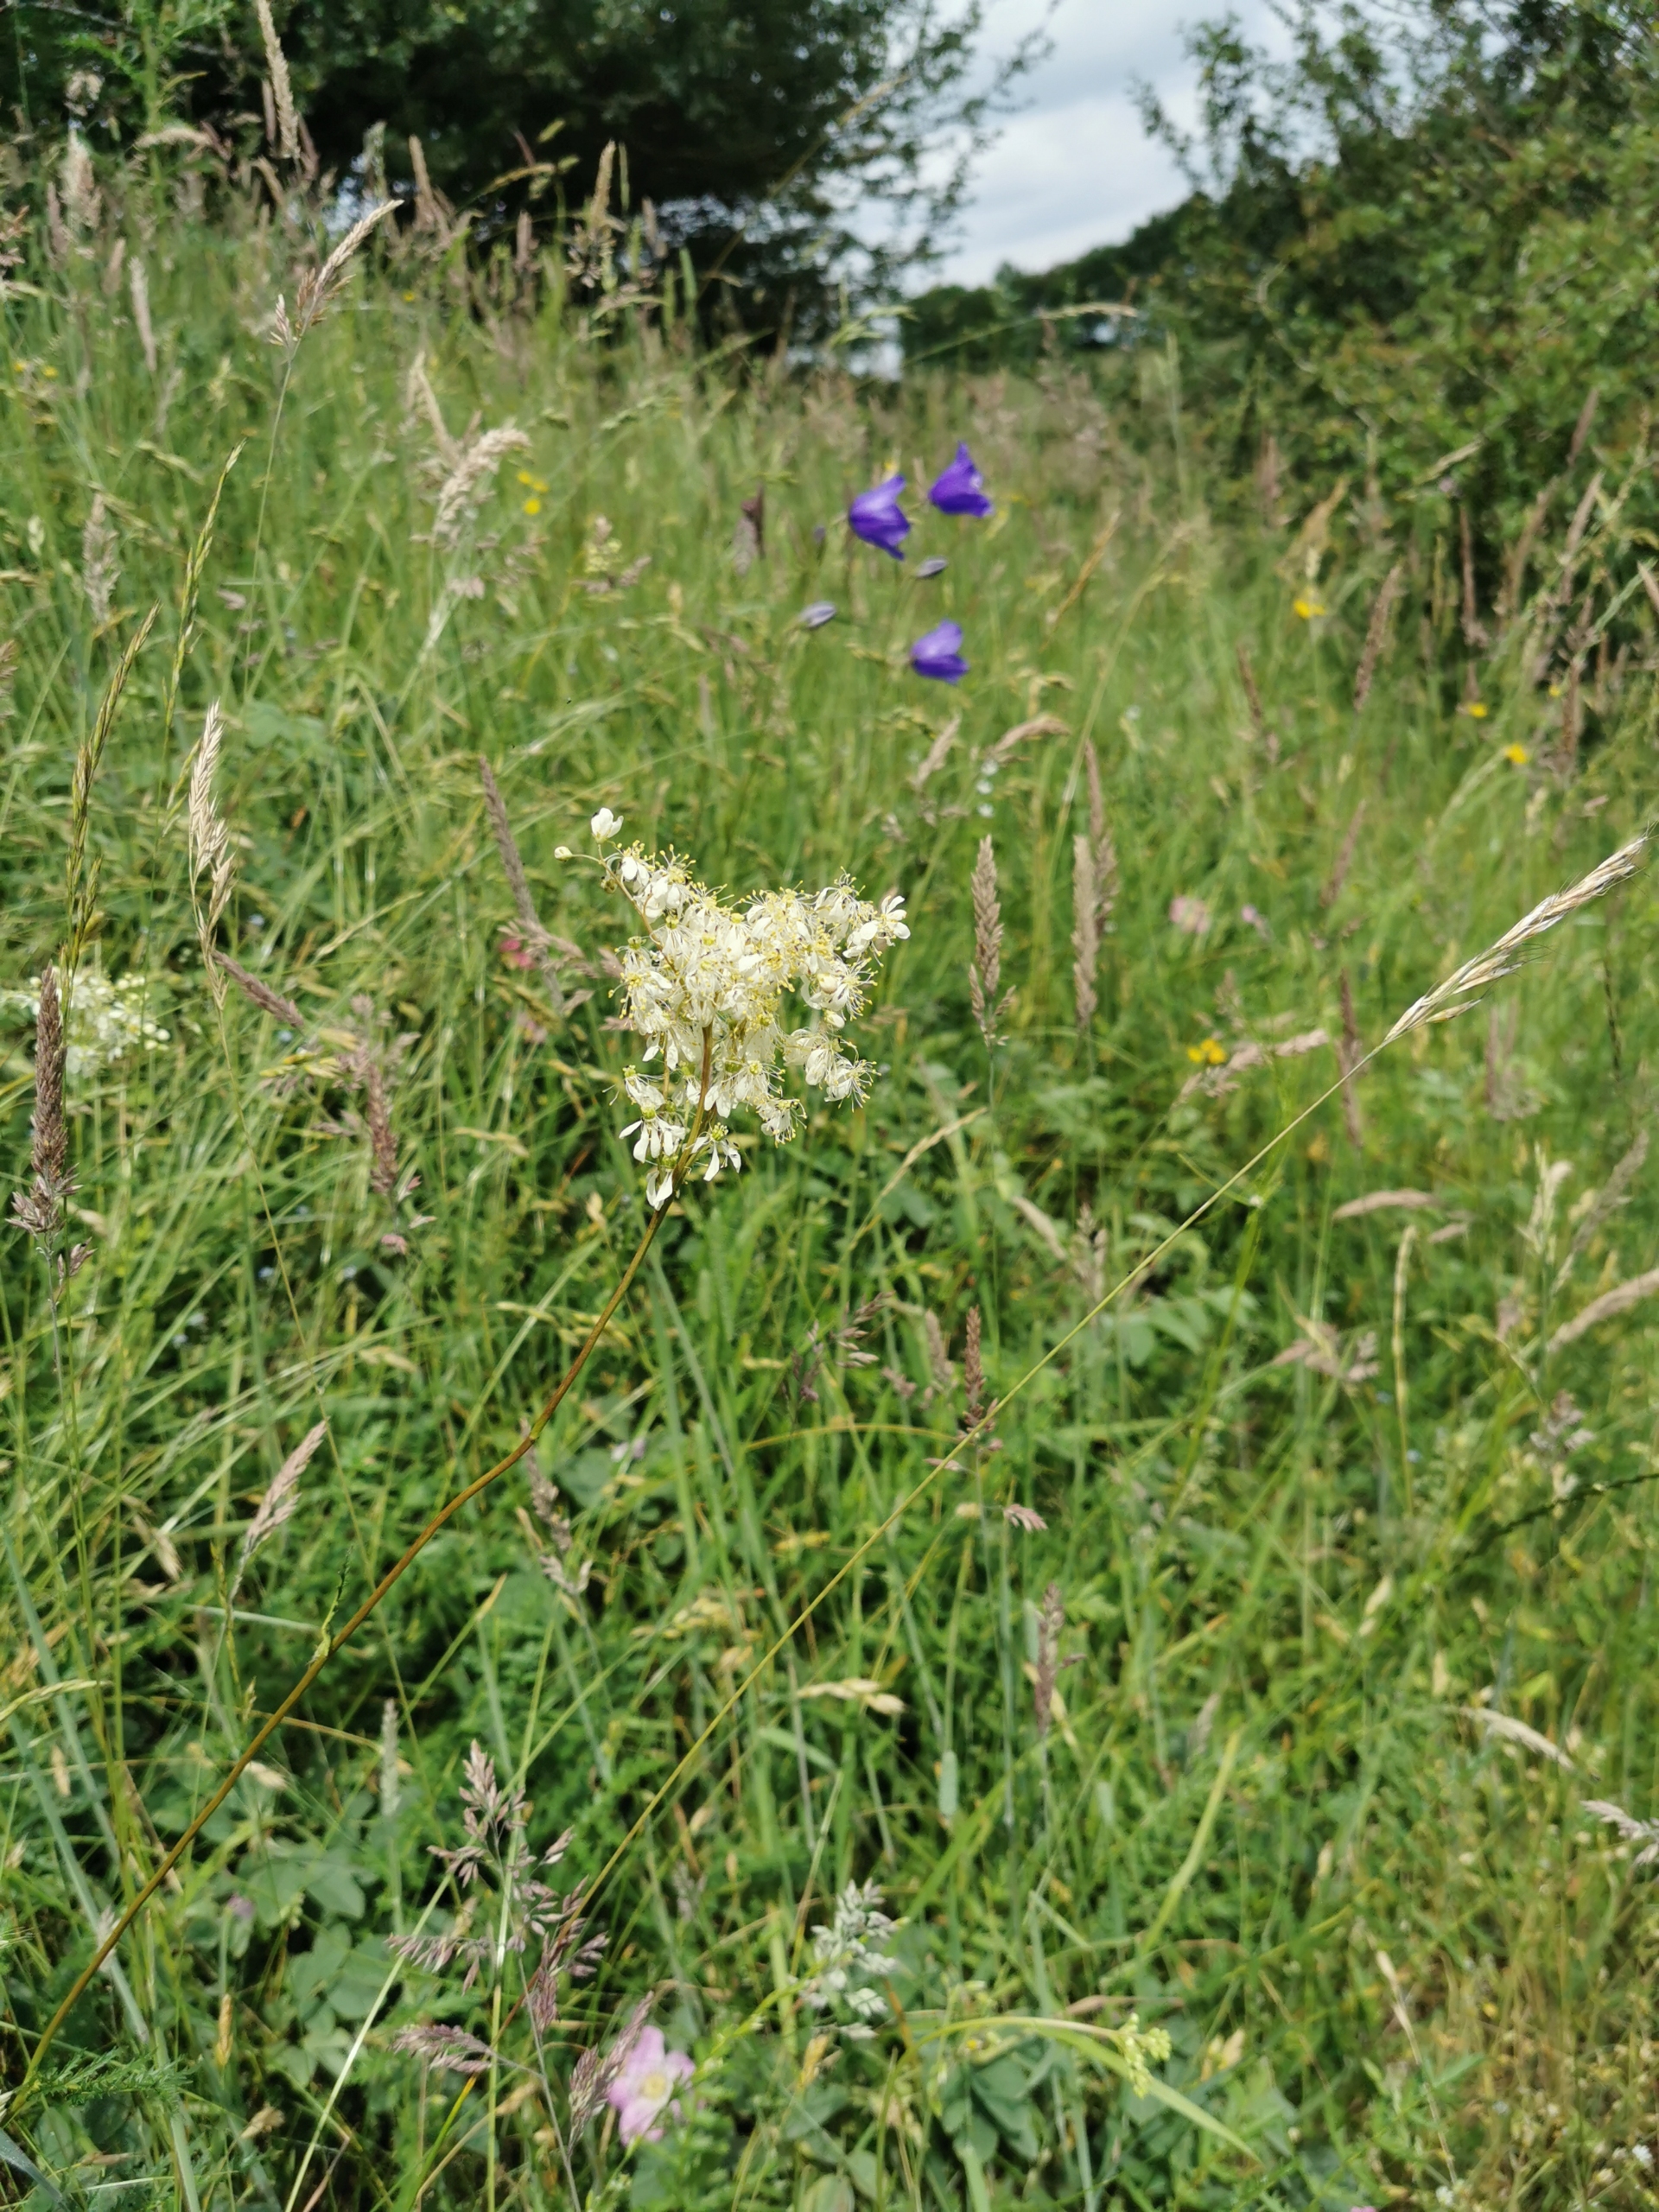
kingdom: Plantae
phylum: Tracheophyta
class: Magnoliopsida
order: Rosales
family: Rosaceae
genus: Filipendula
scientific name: Filipendula vulgaris
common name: Knoldet mjødurt
